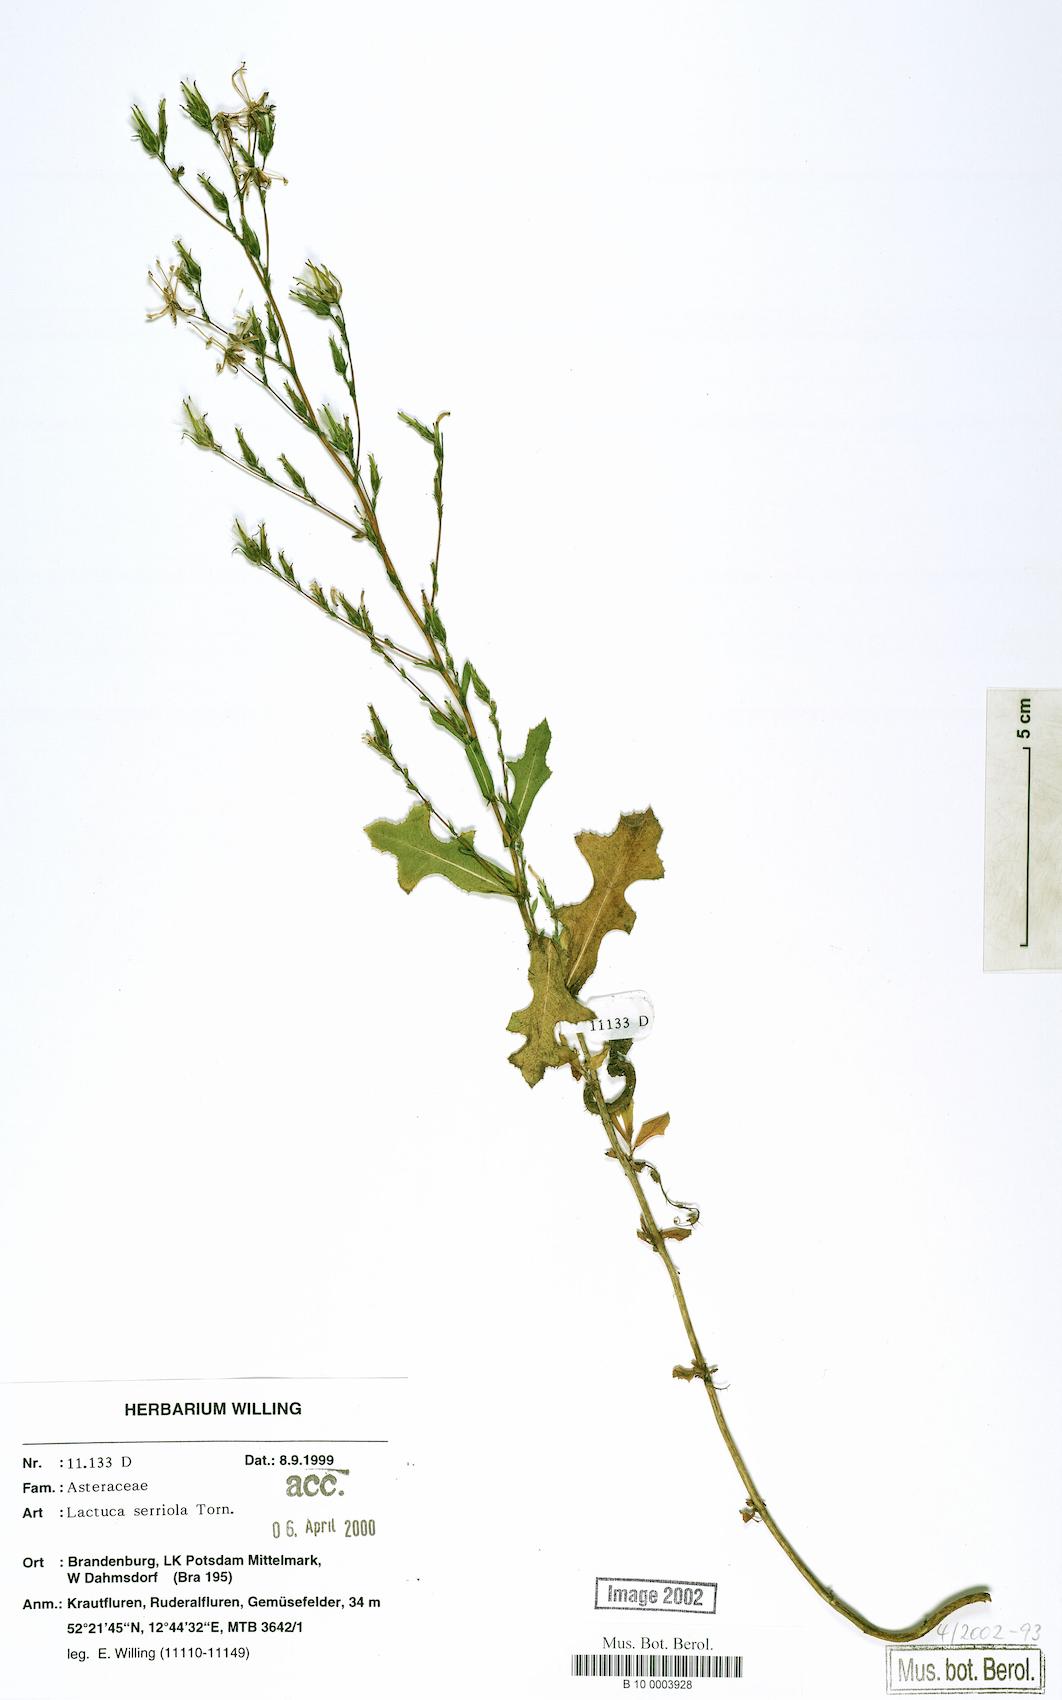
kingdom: Plantae
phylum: Tracheophyta
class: Magnoliopsida
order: Asterales
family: Asteraceae
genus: Lactuca
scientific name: Lactuca serriola
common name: Prickly lettuce
